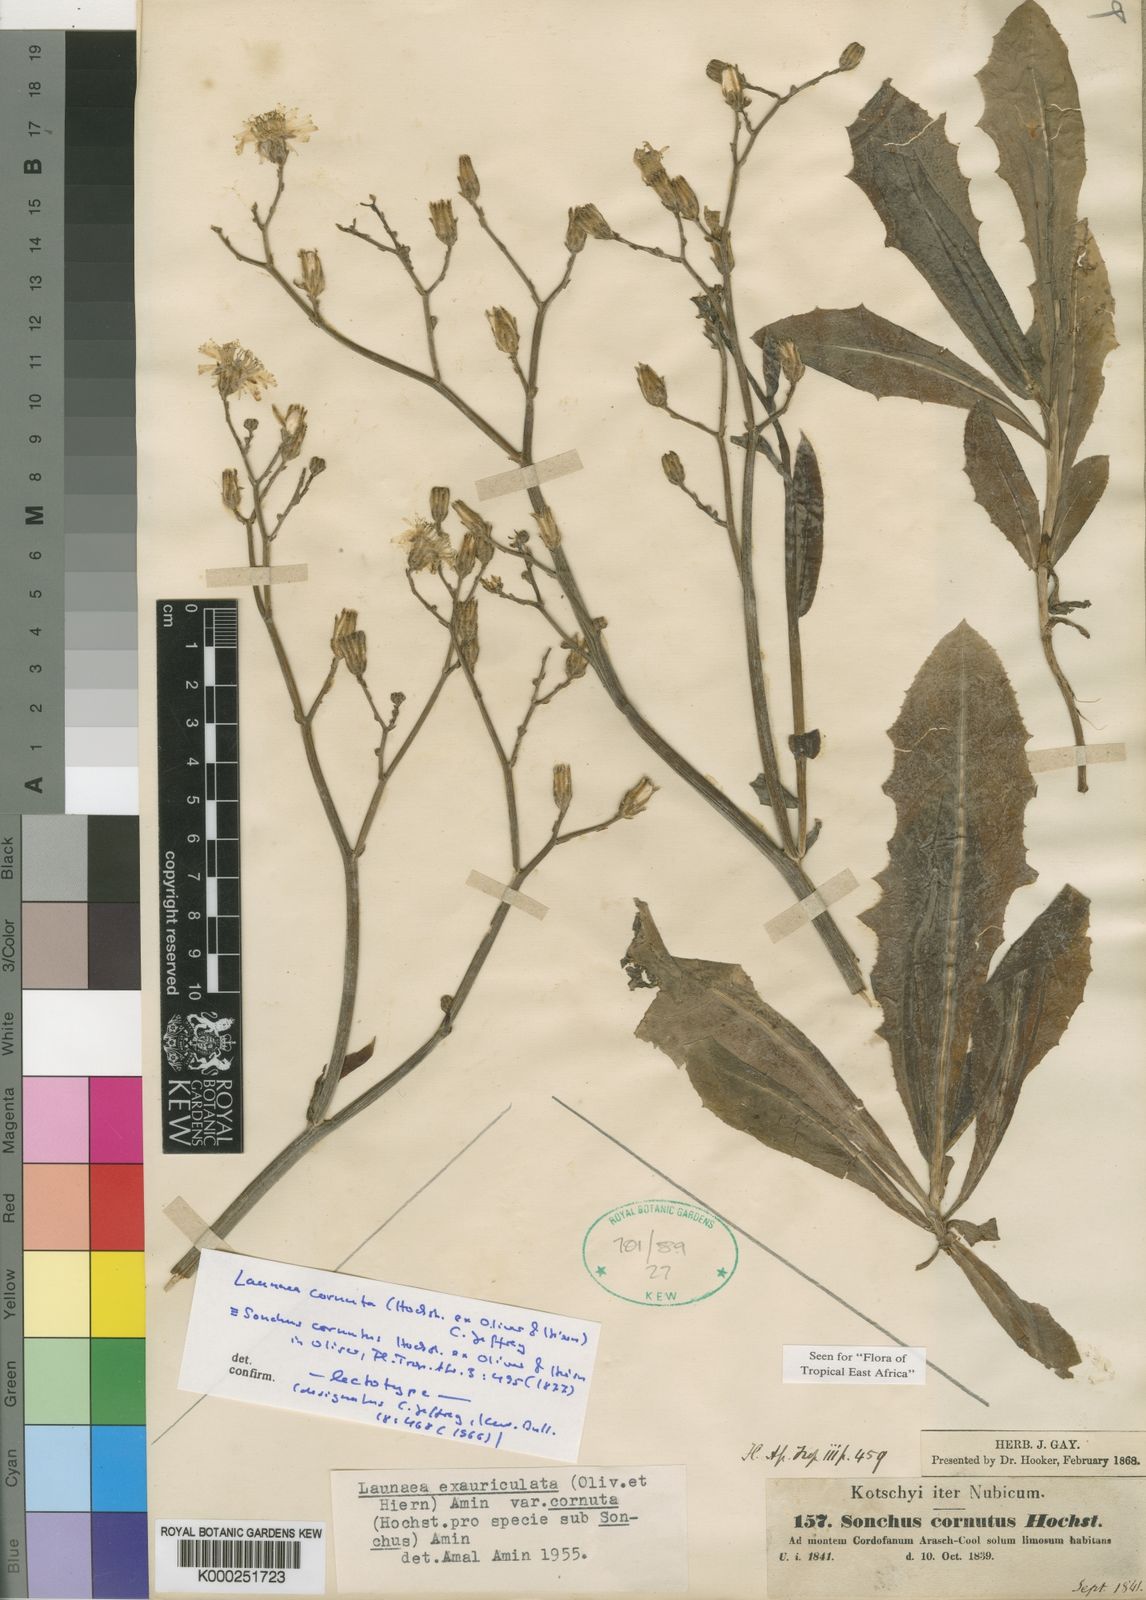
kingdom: Plantae
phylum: Tracheophyta
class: Magnoliopsida
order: Asterales
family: Asteraceae
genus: Launaea
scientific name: Launaea cornuta
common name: Bitter-lettuce
